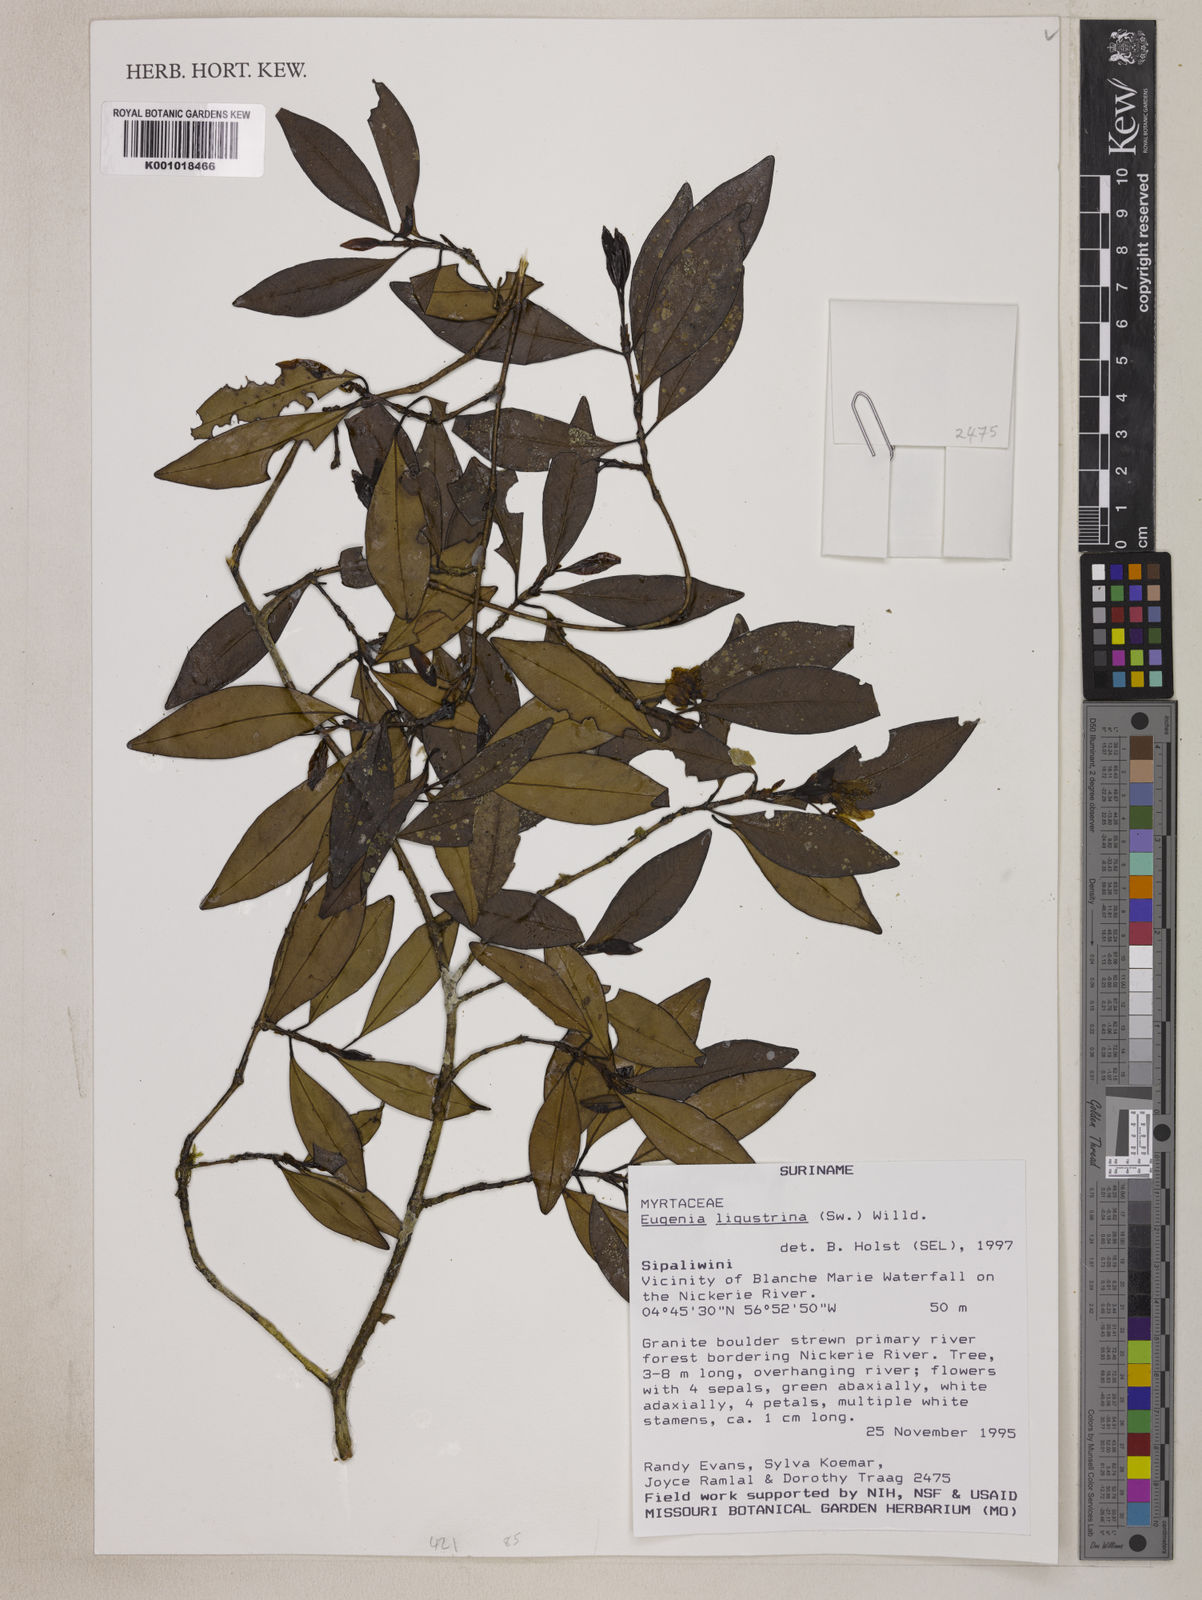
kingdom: Plantae
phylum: Tracheophyta
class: Magnoliopsida
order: Myrtales
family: Myrtaceae
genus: Eugenia
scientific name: Eugenia ligustrina
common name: Privet stopper
